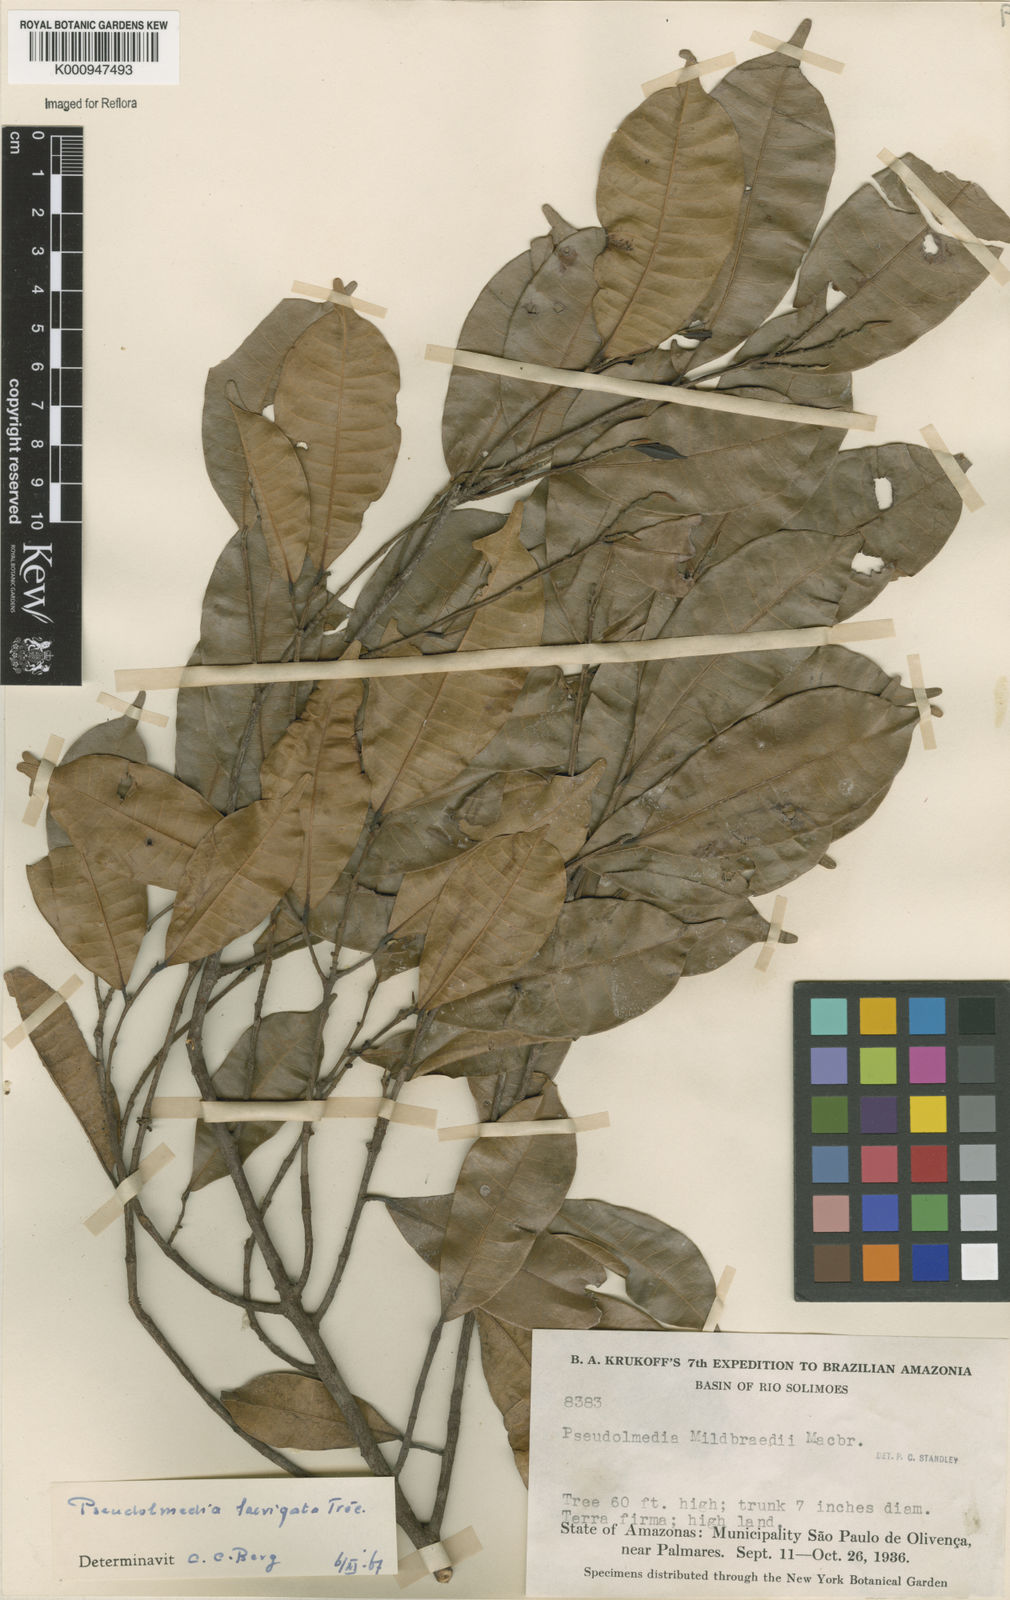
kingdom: Plantae
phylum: Tracheophyta
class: Magnoliopsida
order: Rosales
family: Moraceae
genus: Pseudolmedia
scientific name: Pseudolmedia
